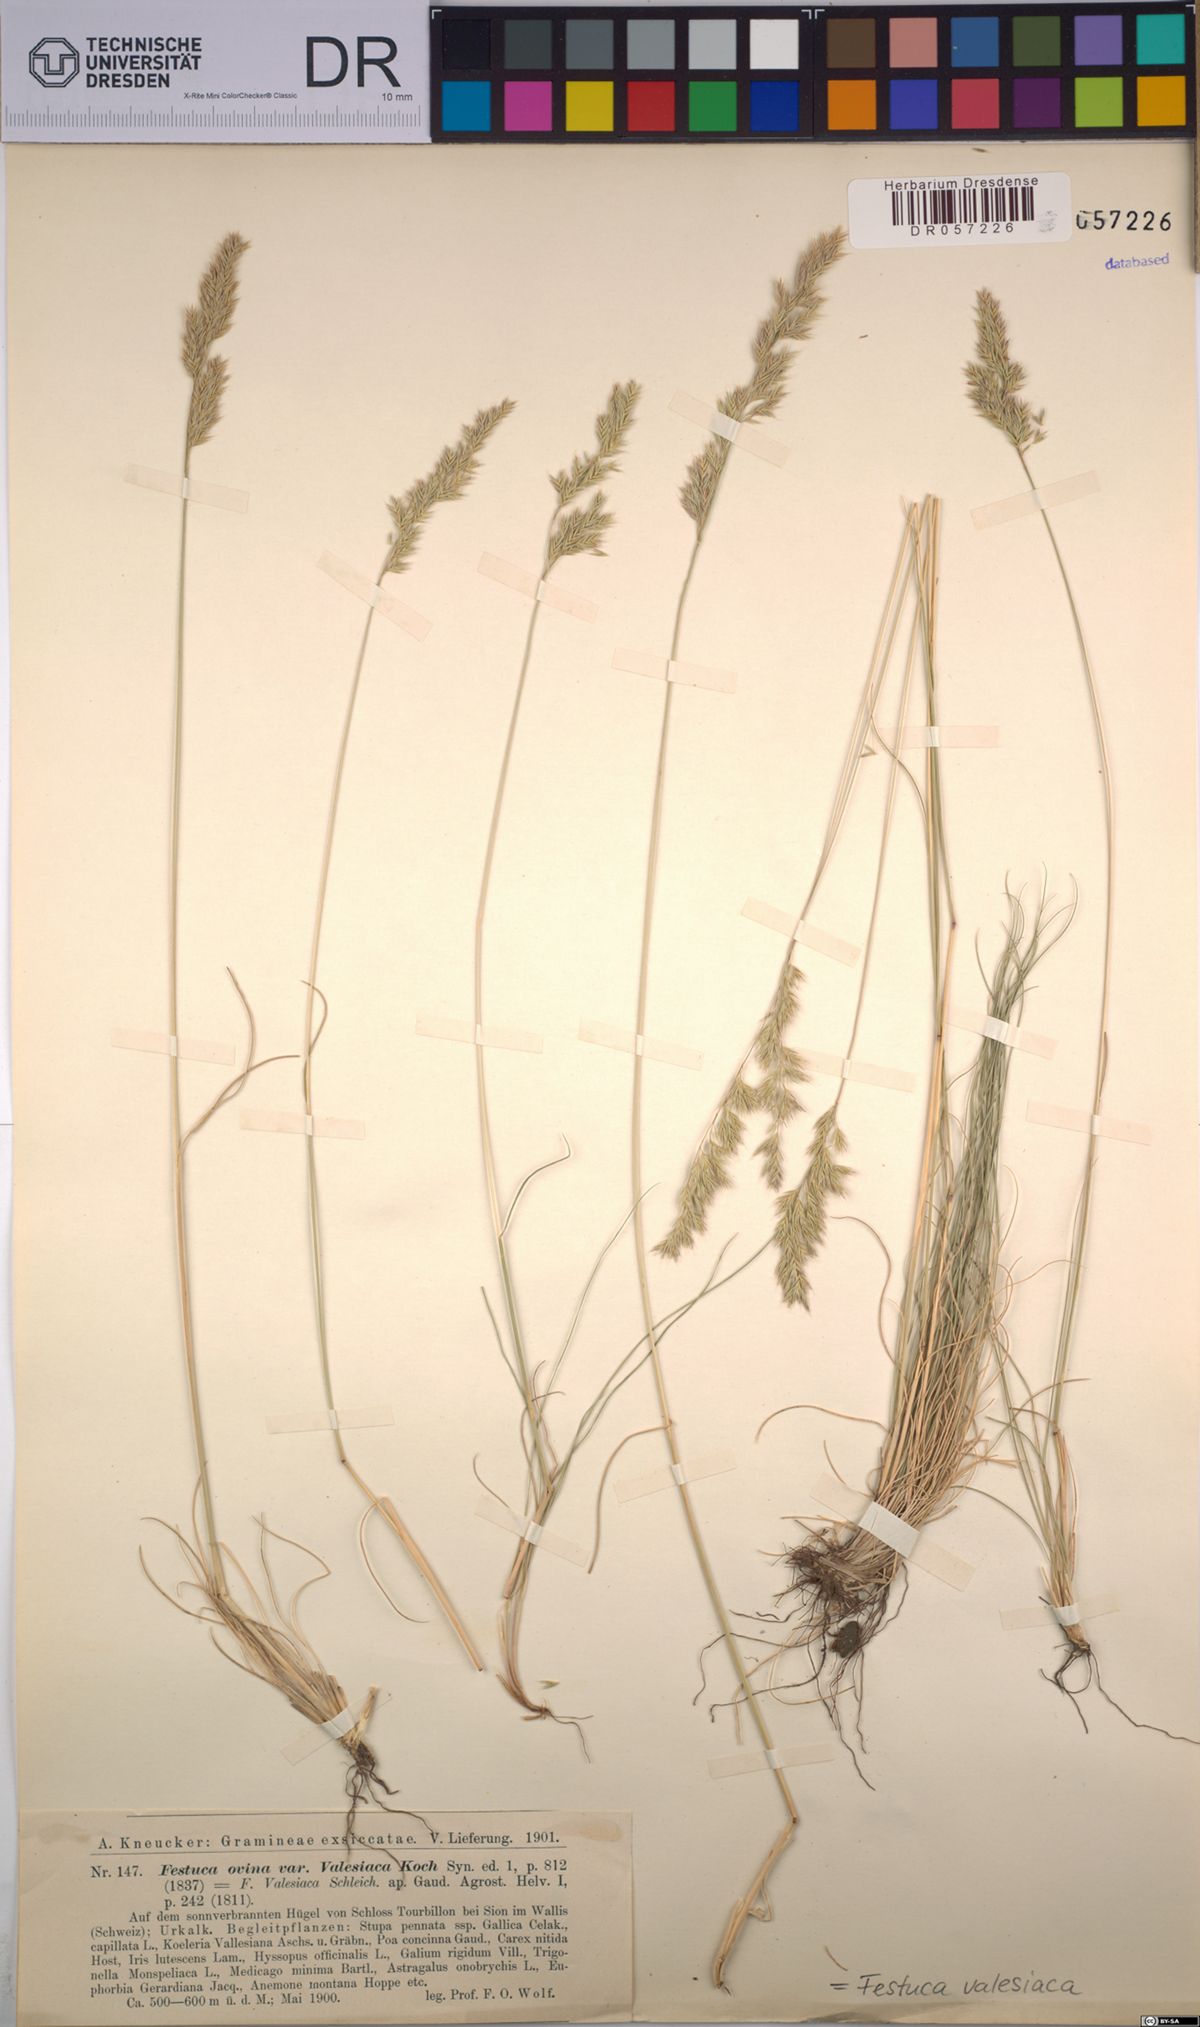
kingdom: Plantae
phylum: Tracheophyta
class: Liliopsida
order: Poales
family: Poaceae
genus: Festuca
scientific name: Festuca valesiaca
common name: Volga fescue
